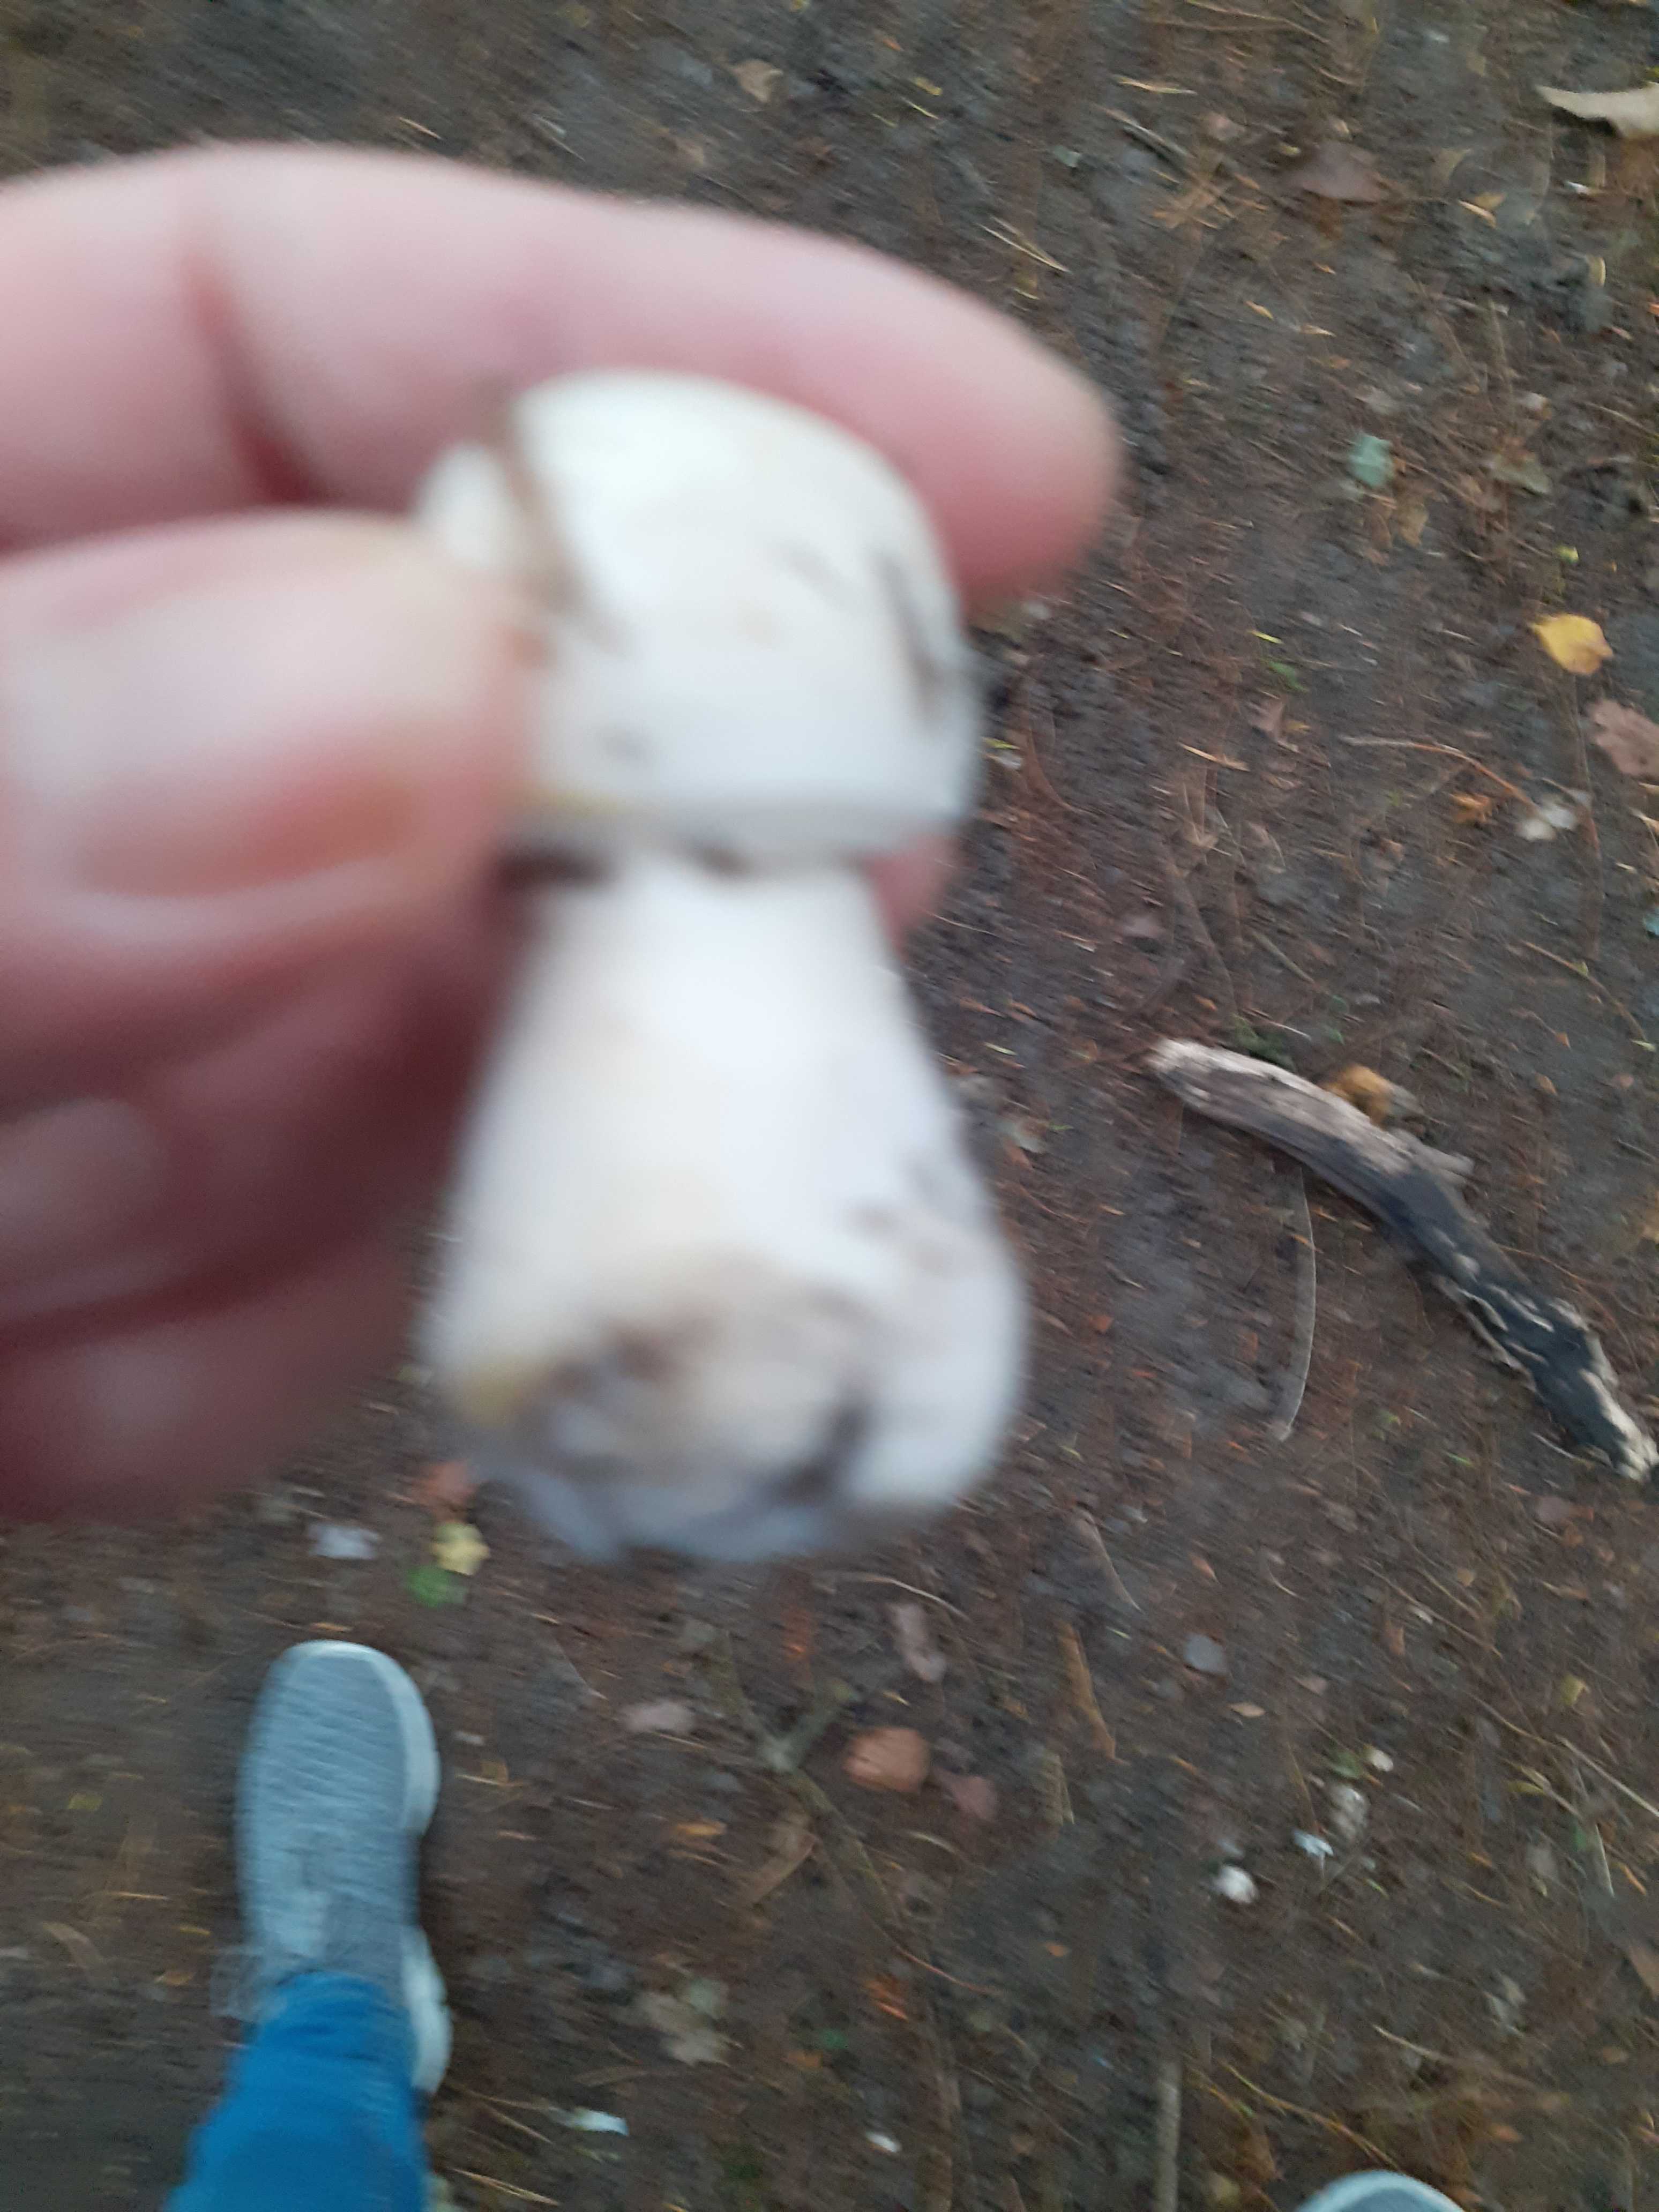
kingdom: Fungi
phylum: Basidiomycota
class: Agaricomycetes
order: Agaricales
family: Agaricaceae
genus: Agaricus
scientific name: Agaricus
